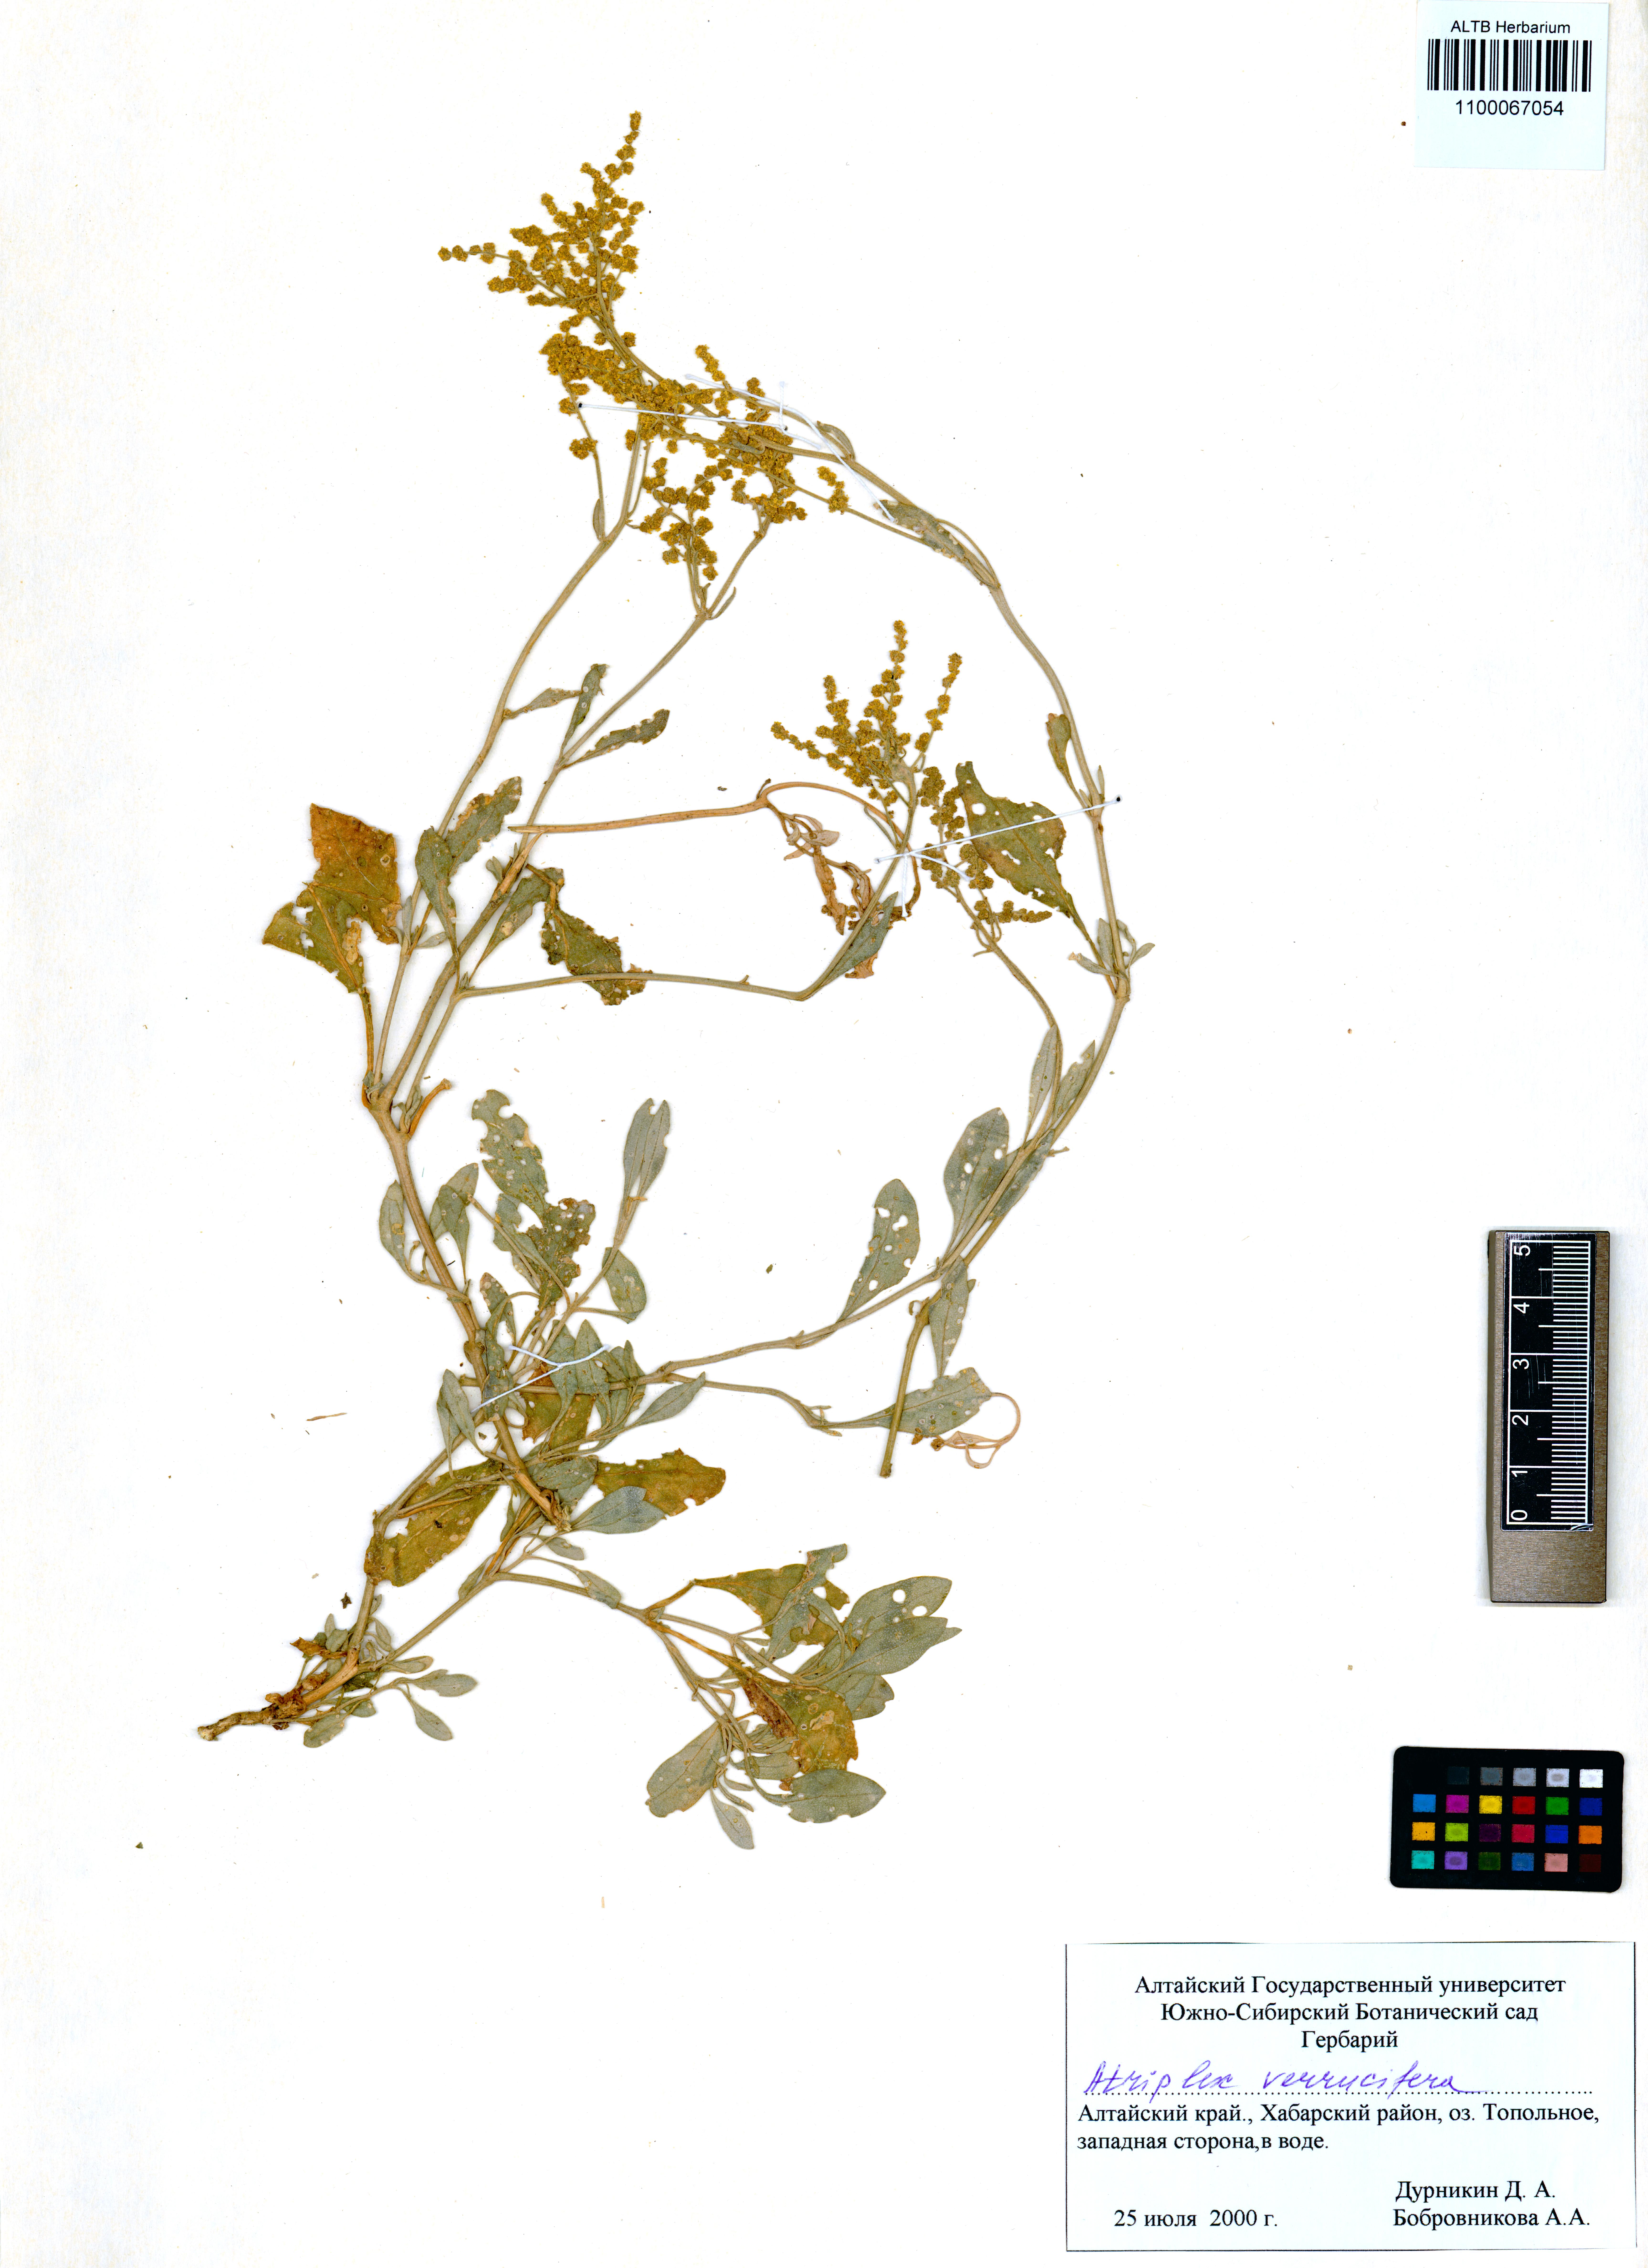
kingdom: Plantae
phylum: Tracheophyta
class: Magnoliopsida
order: Caryophyllales
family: Amaranthaceae
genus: Halimione
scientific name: Halimione verrucifera
